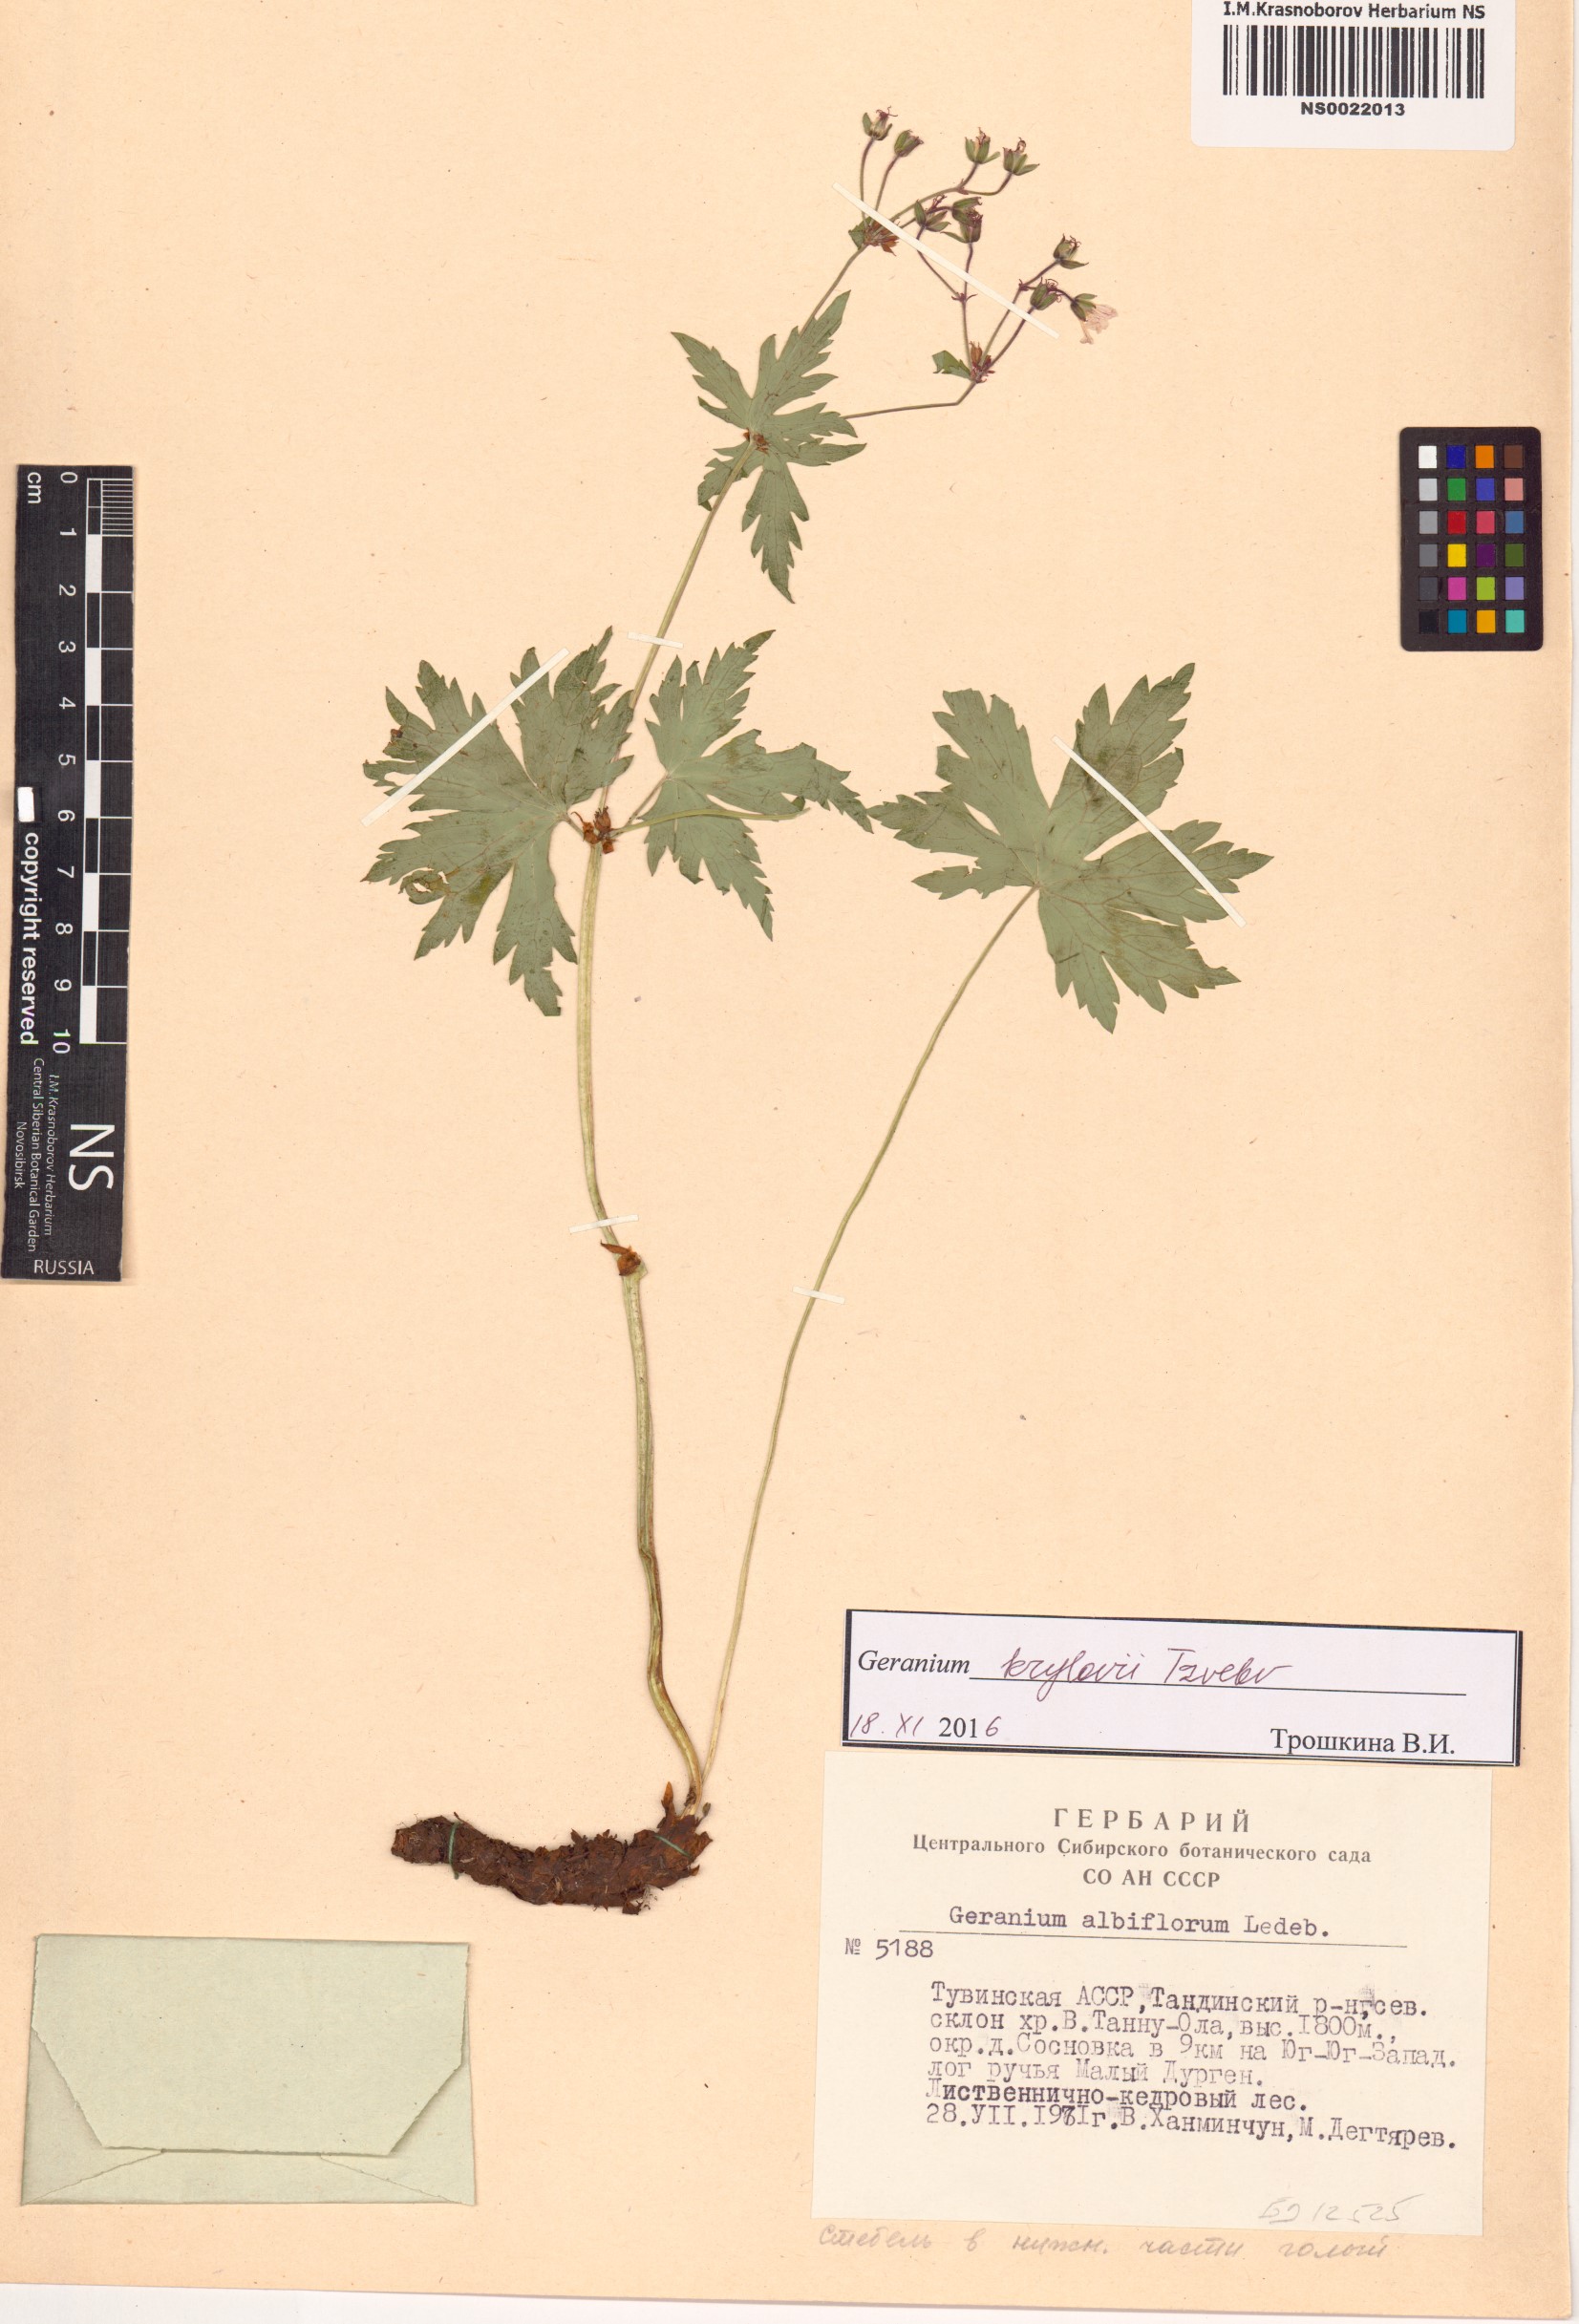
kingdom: Plantae
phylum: Tracheophyta
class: Magnoliopsida
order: Geraniales
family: Geraniaceae
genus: Geranium
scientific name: Geranium sylvaticum
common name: Wood crane's-bill
